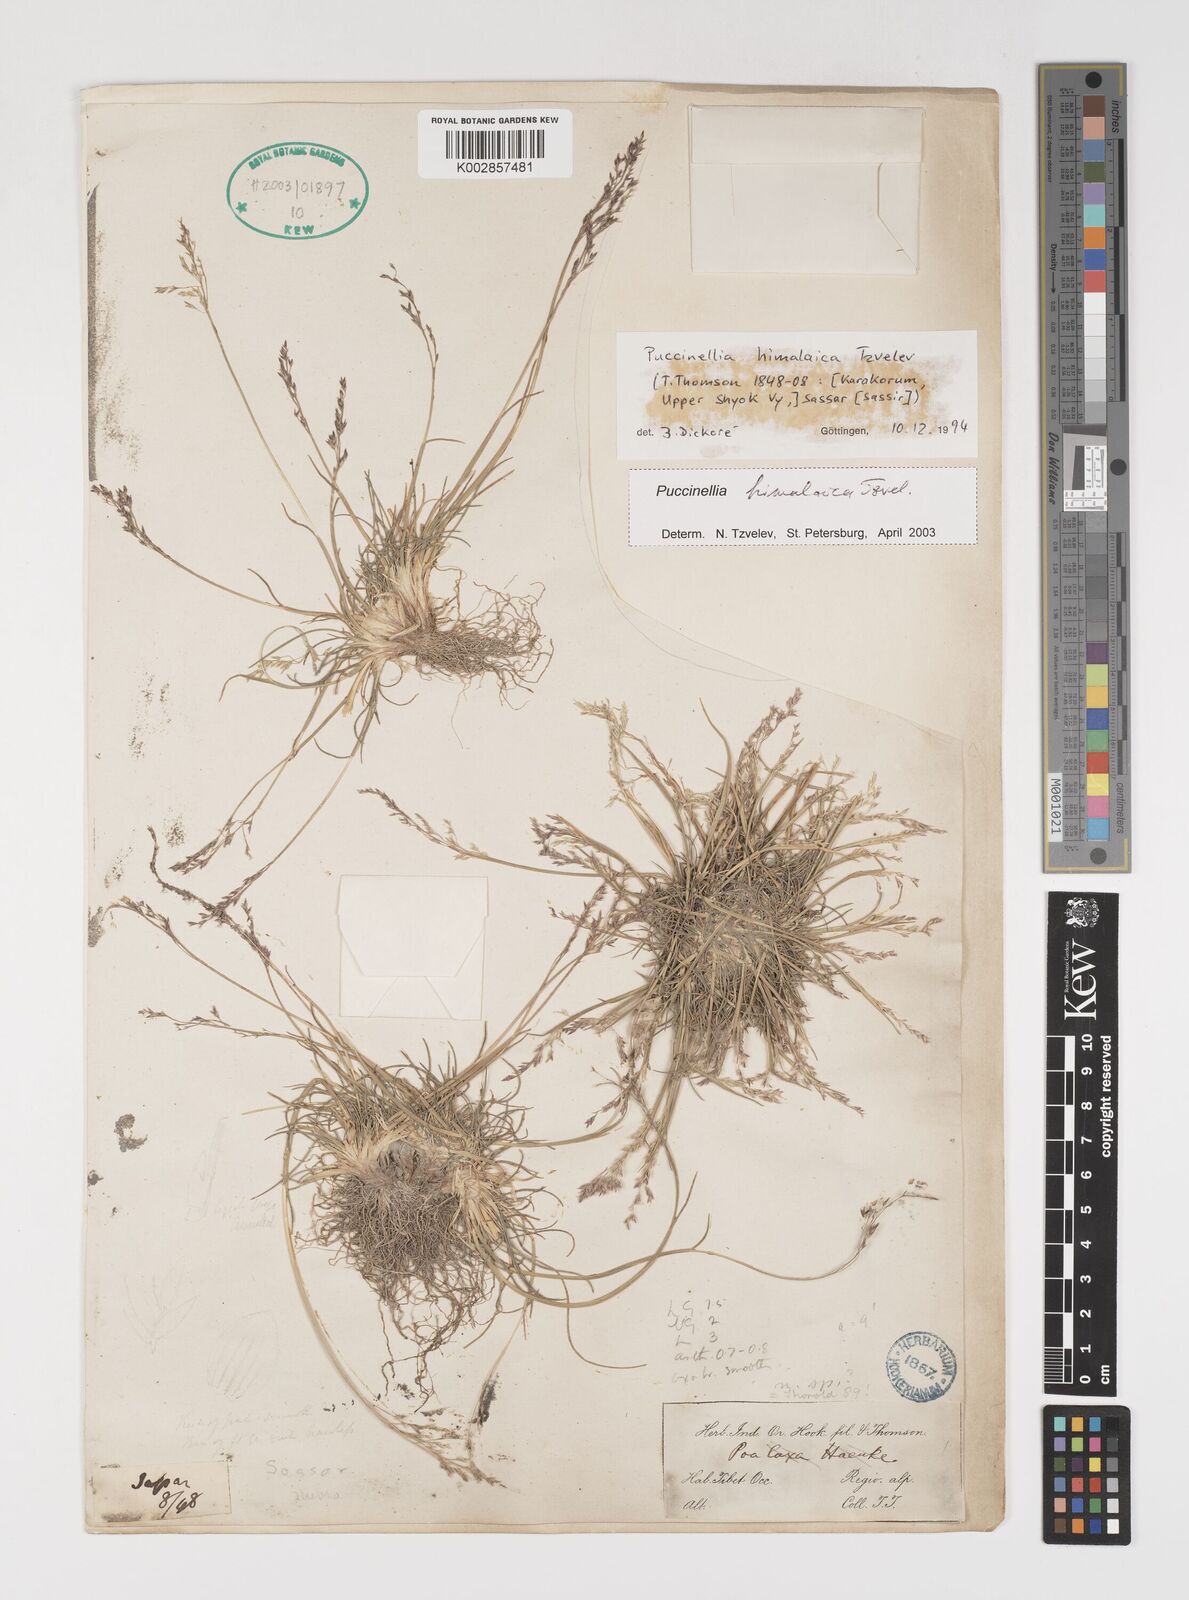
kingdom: Plantae
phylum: Tracheophyta
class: Liliopsida
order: Poales
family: Poaceae
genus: Puccinellia
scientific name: Puccinellia himalaica
